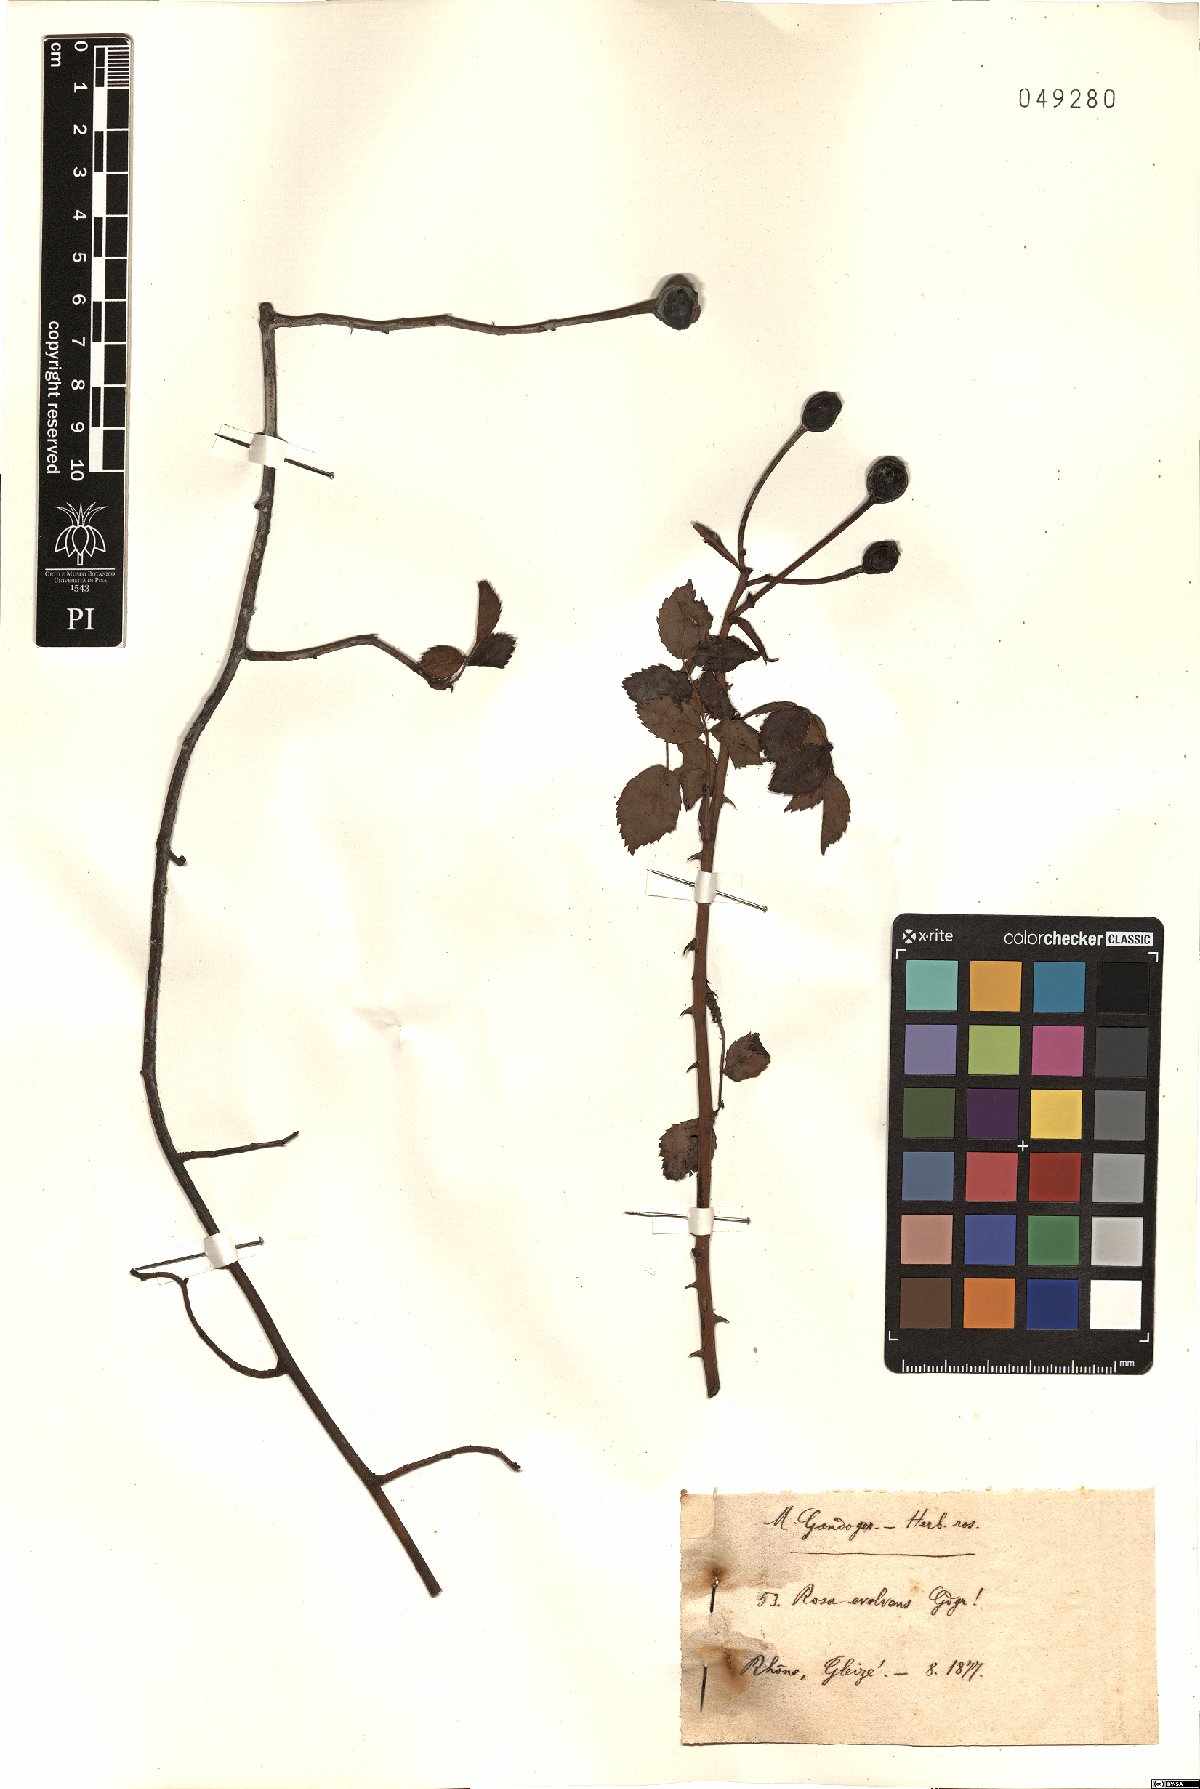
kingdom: Plantae
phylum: Tracheophyta
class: Magnoliopsida
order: Rosales
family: Rosaceae
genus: Rosa
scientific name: Rosa evolvens
